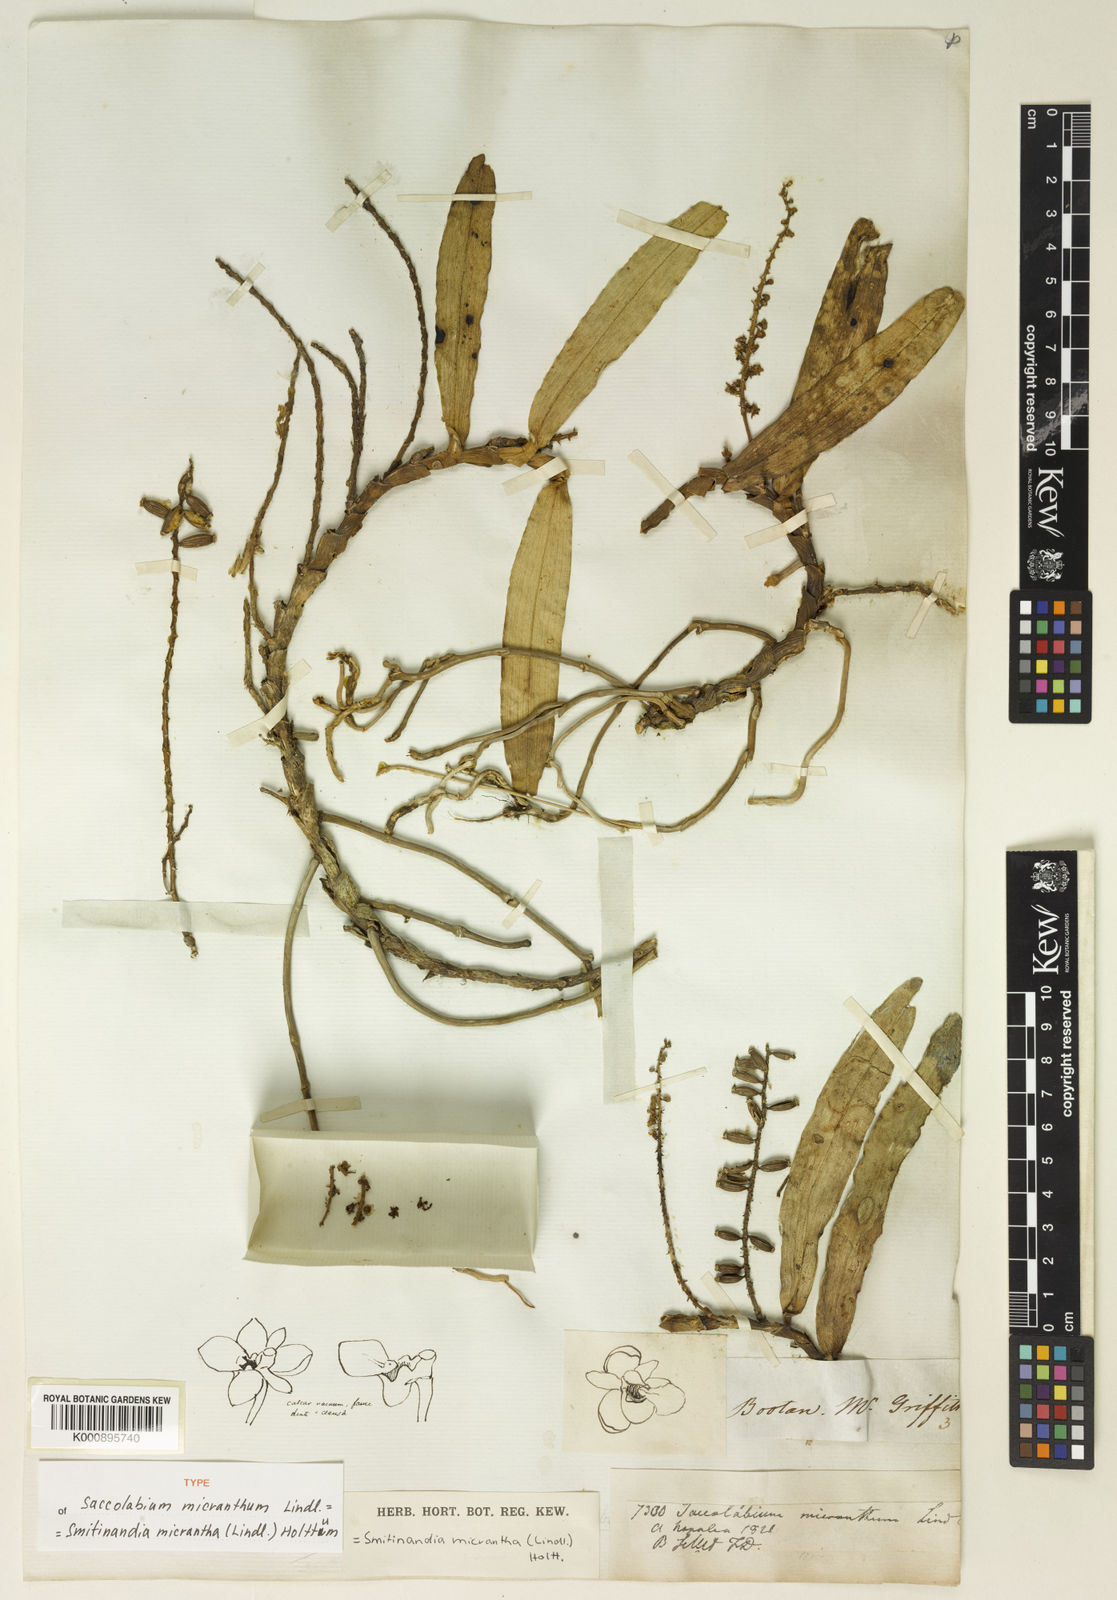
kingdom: Plantae
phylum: Tracheophyta
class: Liliopsida
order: Asparagales
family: Orchidaceae
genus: Smitinandia
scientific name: Smitinandia micrantha
